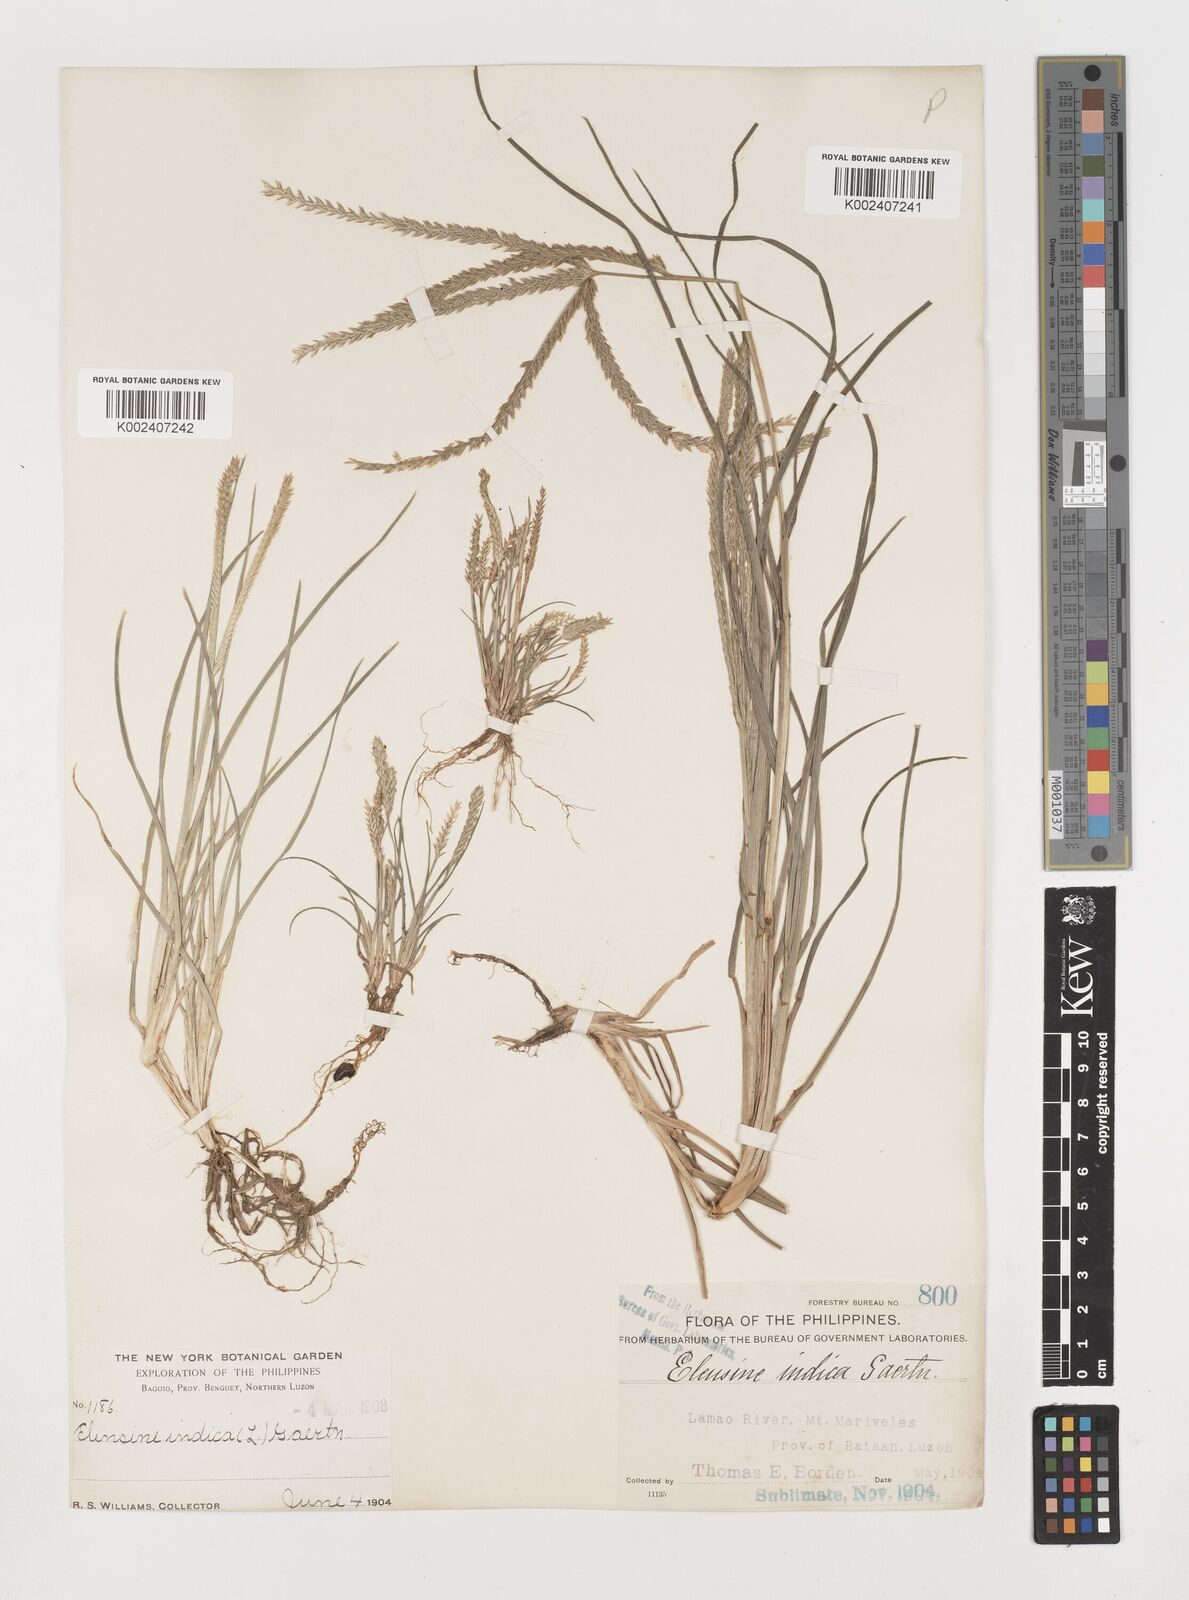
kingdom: Plantae
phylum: Tracheophyta
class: Liliopsida
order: Poales
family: Poaceae
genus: Eleusine
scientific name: Eleusine indica
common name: Yard-grass
